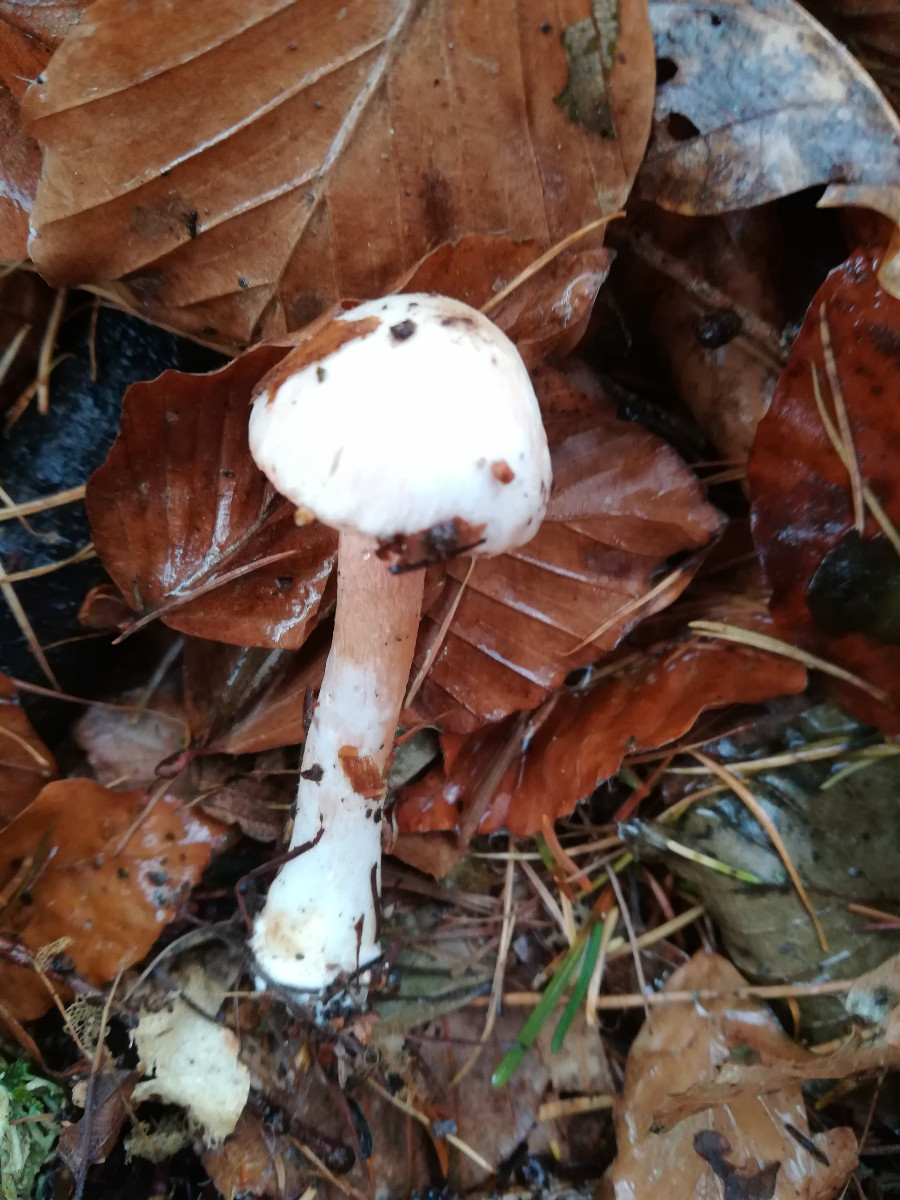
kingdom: Fungi
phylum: Basidiomycota
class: Agaricomycetes
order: Agaricales
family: Inocybaceae
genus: Inocybe
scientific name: Inocybe
